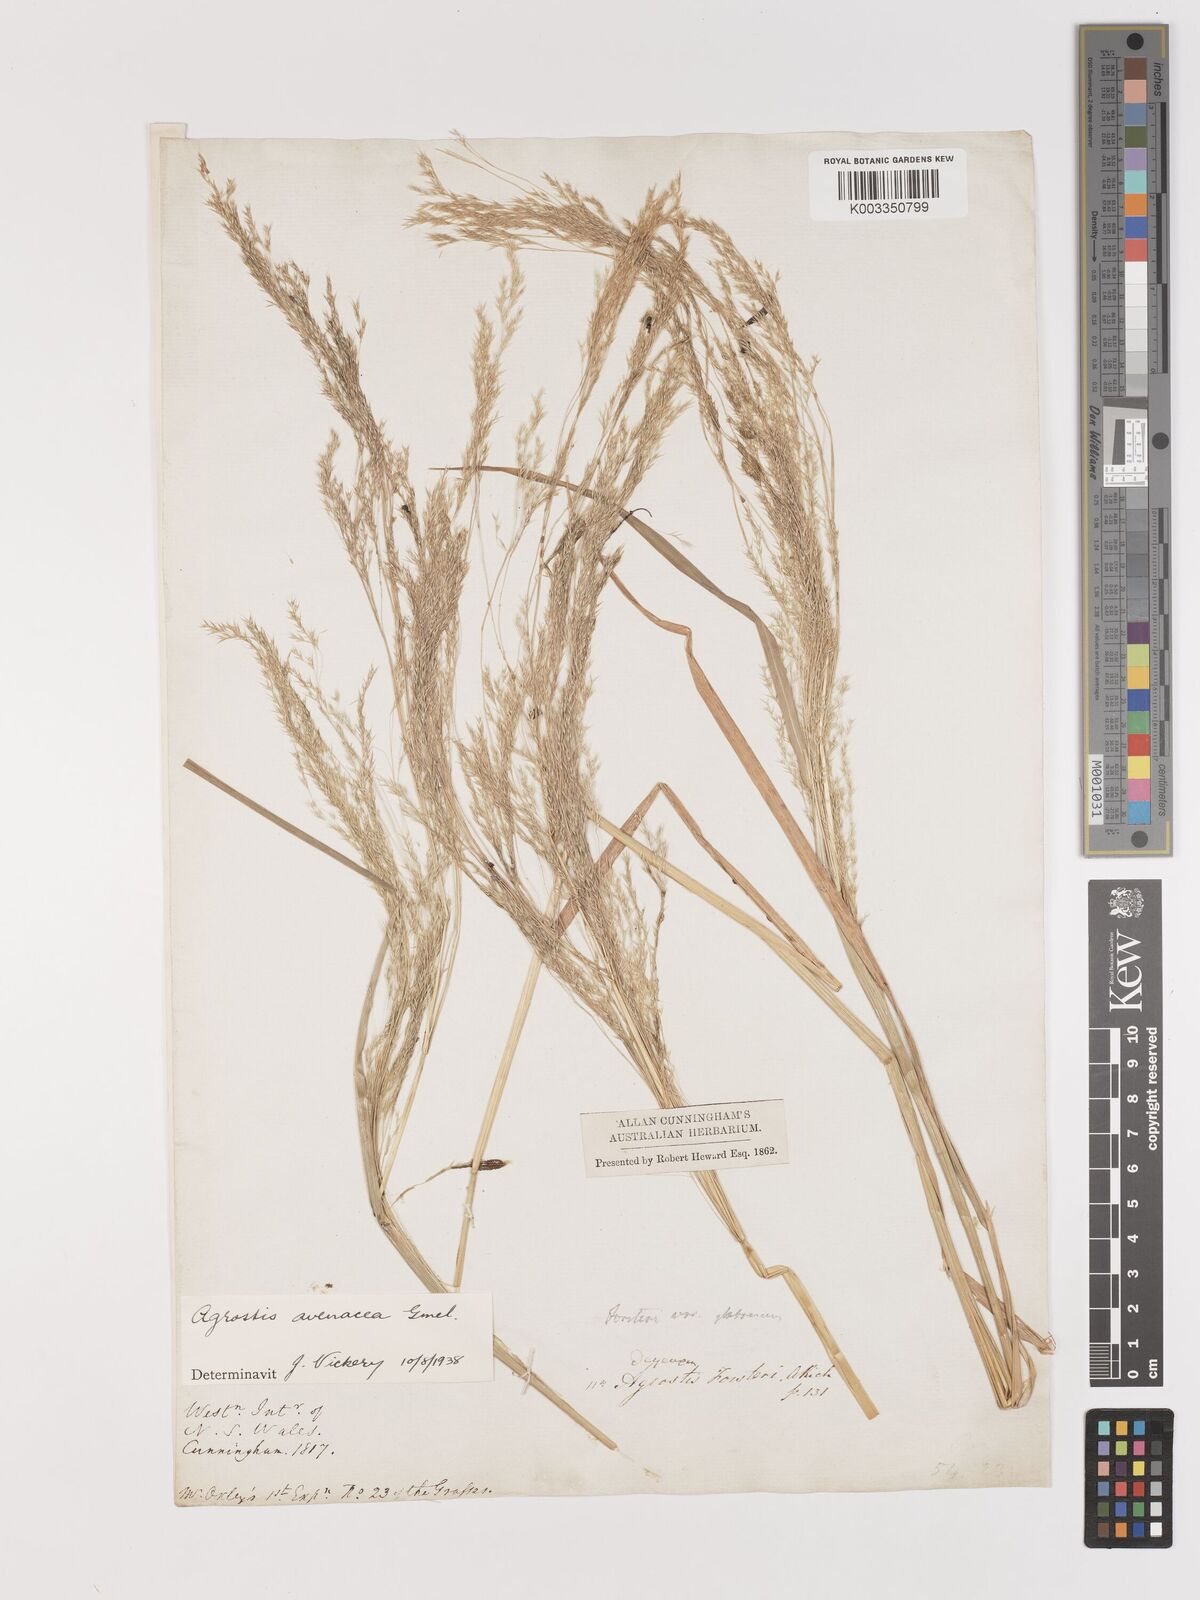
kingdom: Plantae
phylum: Tracheophyta
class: Liliopsida
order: Poales
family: Poaceae
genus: Lachnagrostis
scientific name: Lachnagrostis filiformis
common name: Bentgrass
